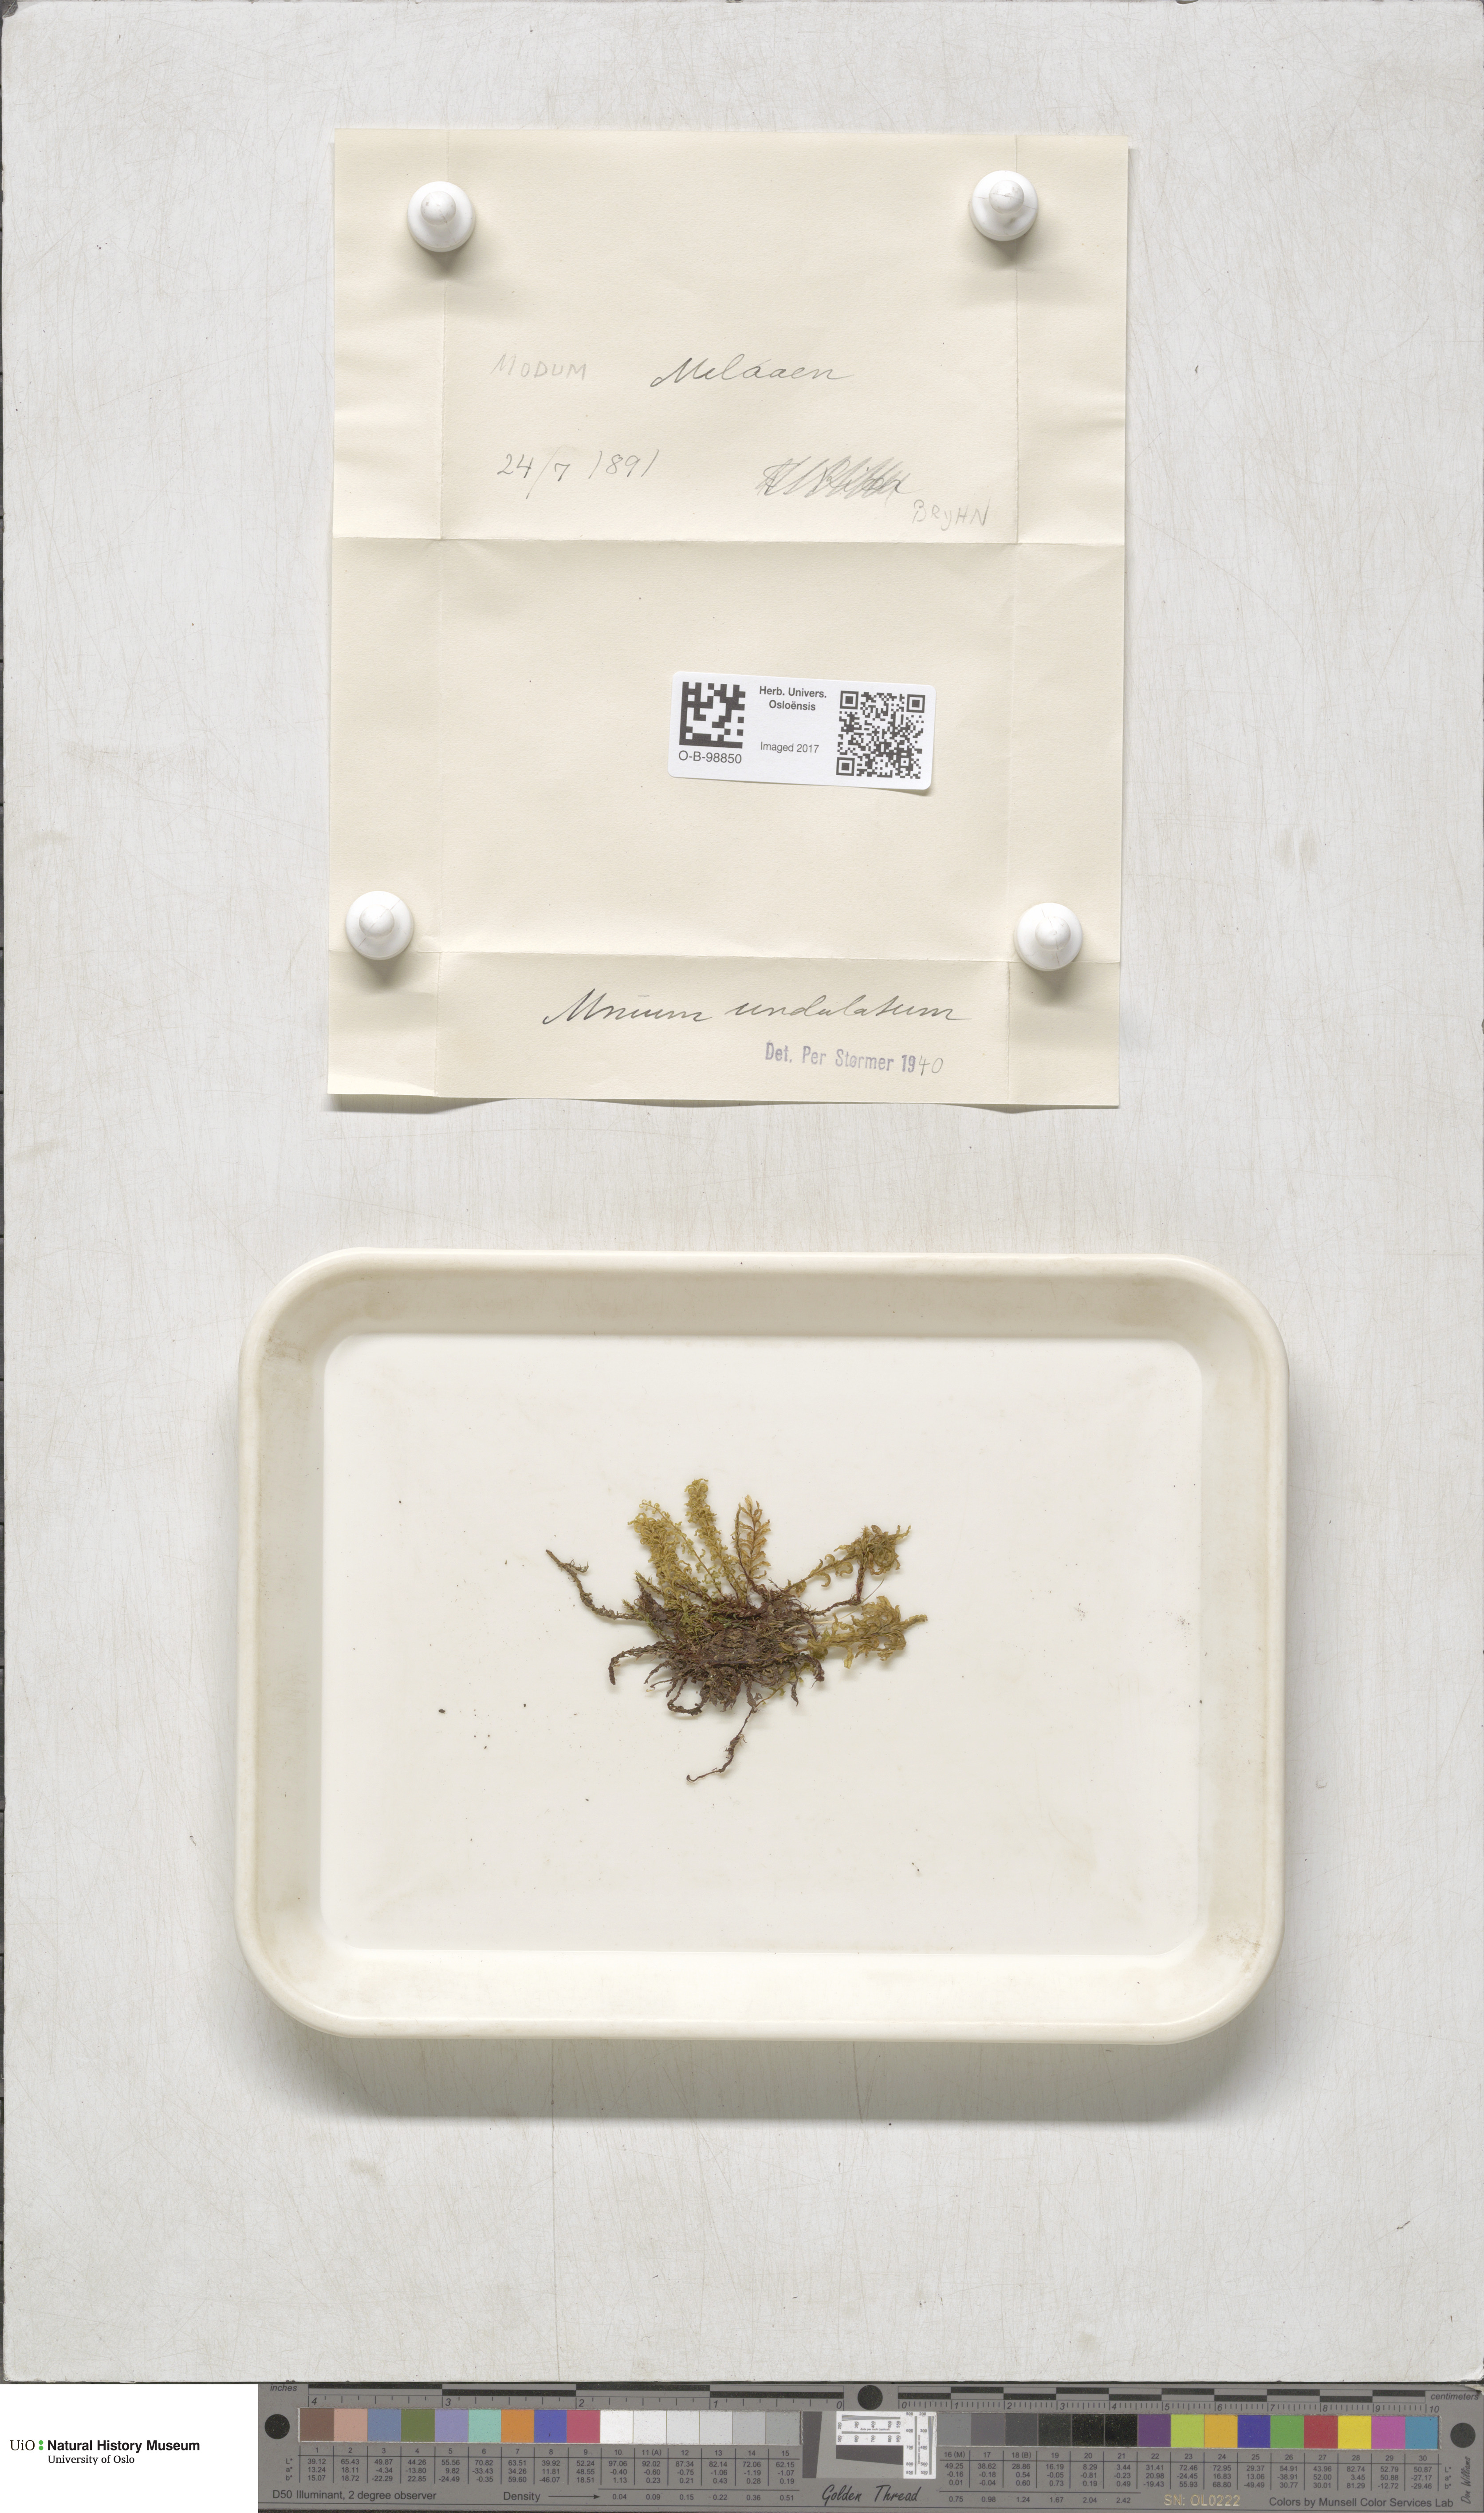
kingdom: Plantae
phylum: Bryophyta
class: Bryopsida
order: Bryales
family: Mniaceae
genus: Plagiomnium
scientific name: Plagiomnium undulatum
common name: Hart's-tongue thyme-moss
